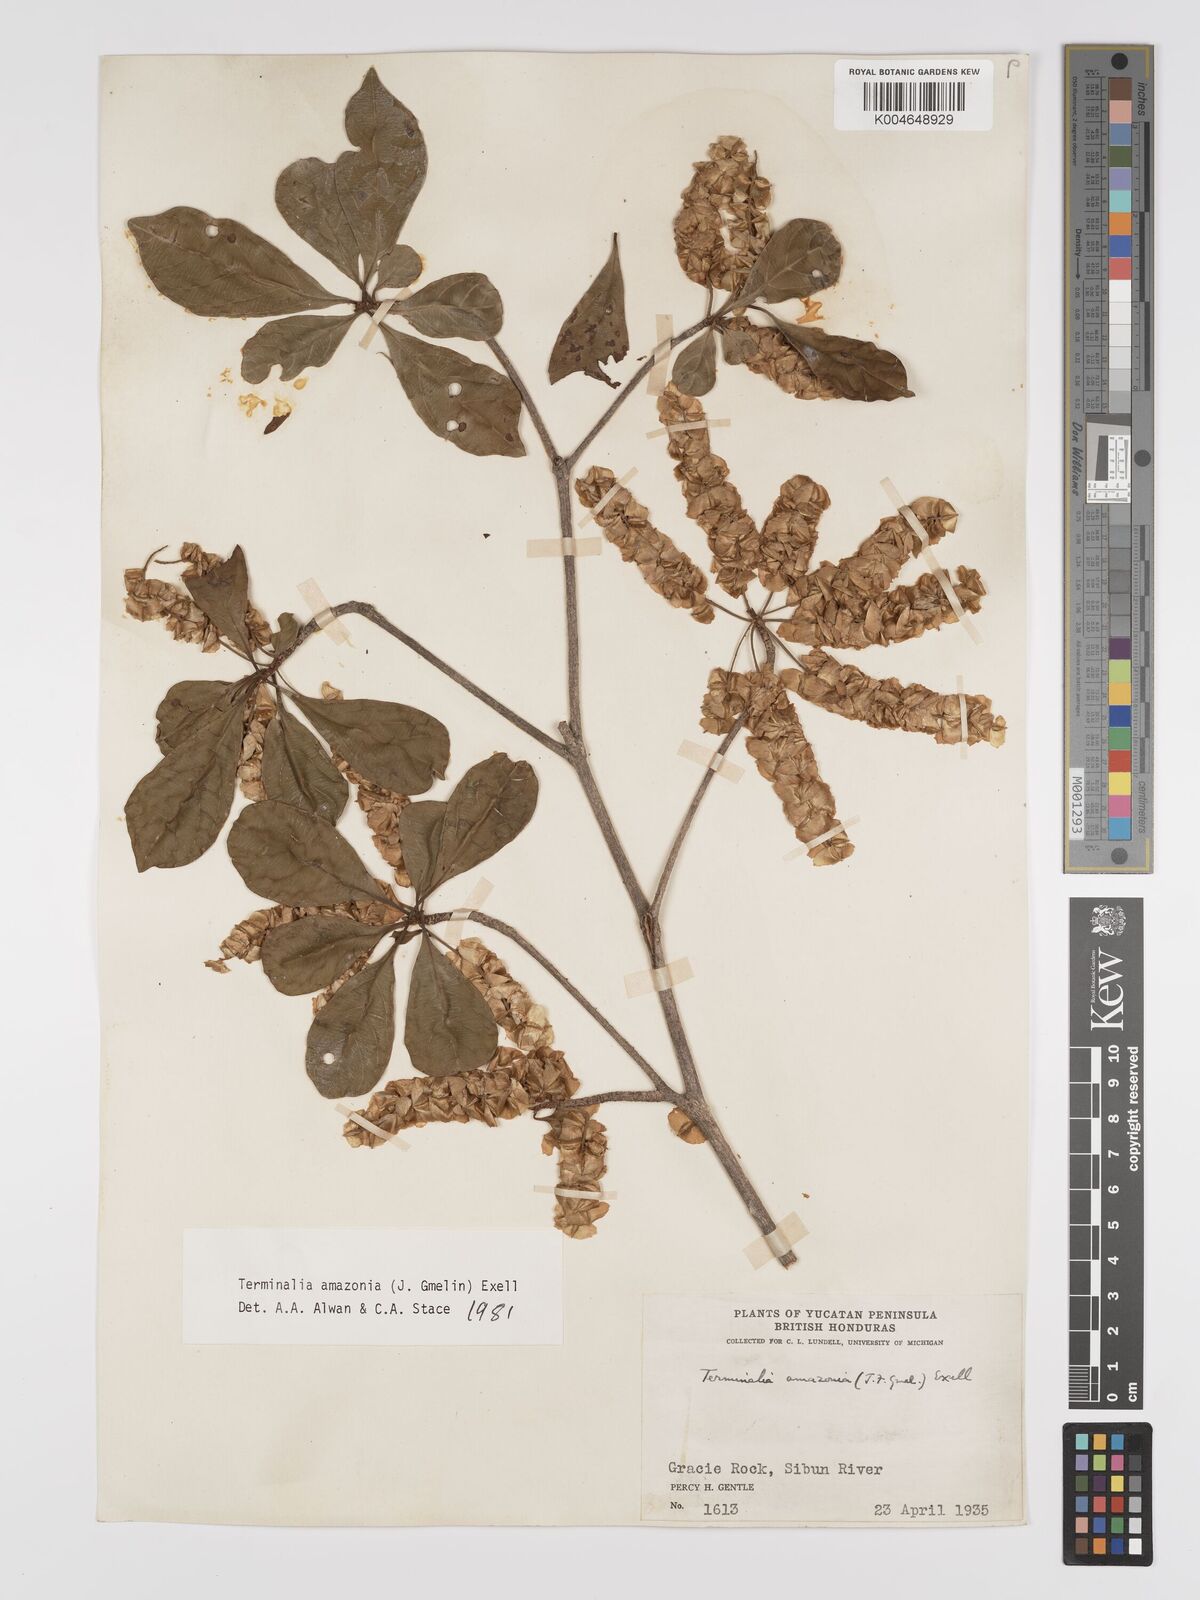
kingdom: Plantae
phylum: Tracheophyta
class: Magnoliopsida
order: Myrtales
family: Combretaceae
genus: Terminalia
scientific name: Terminalia amazonica
